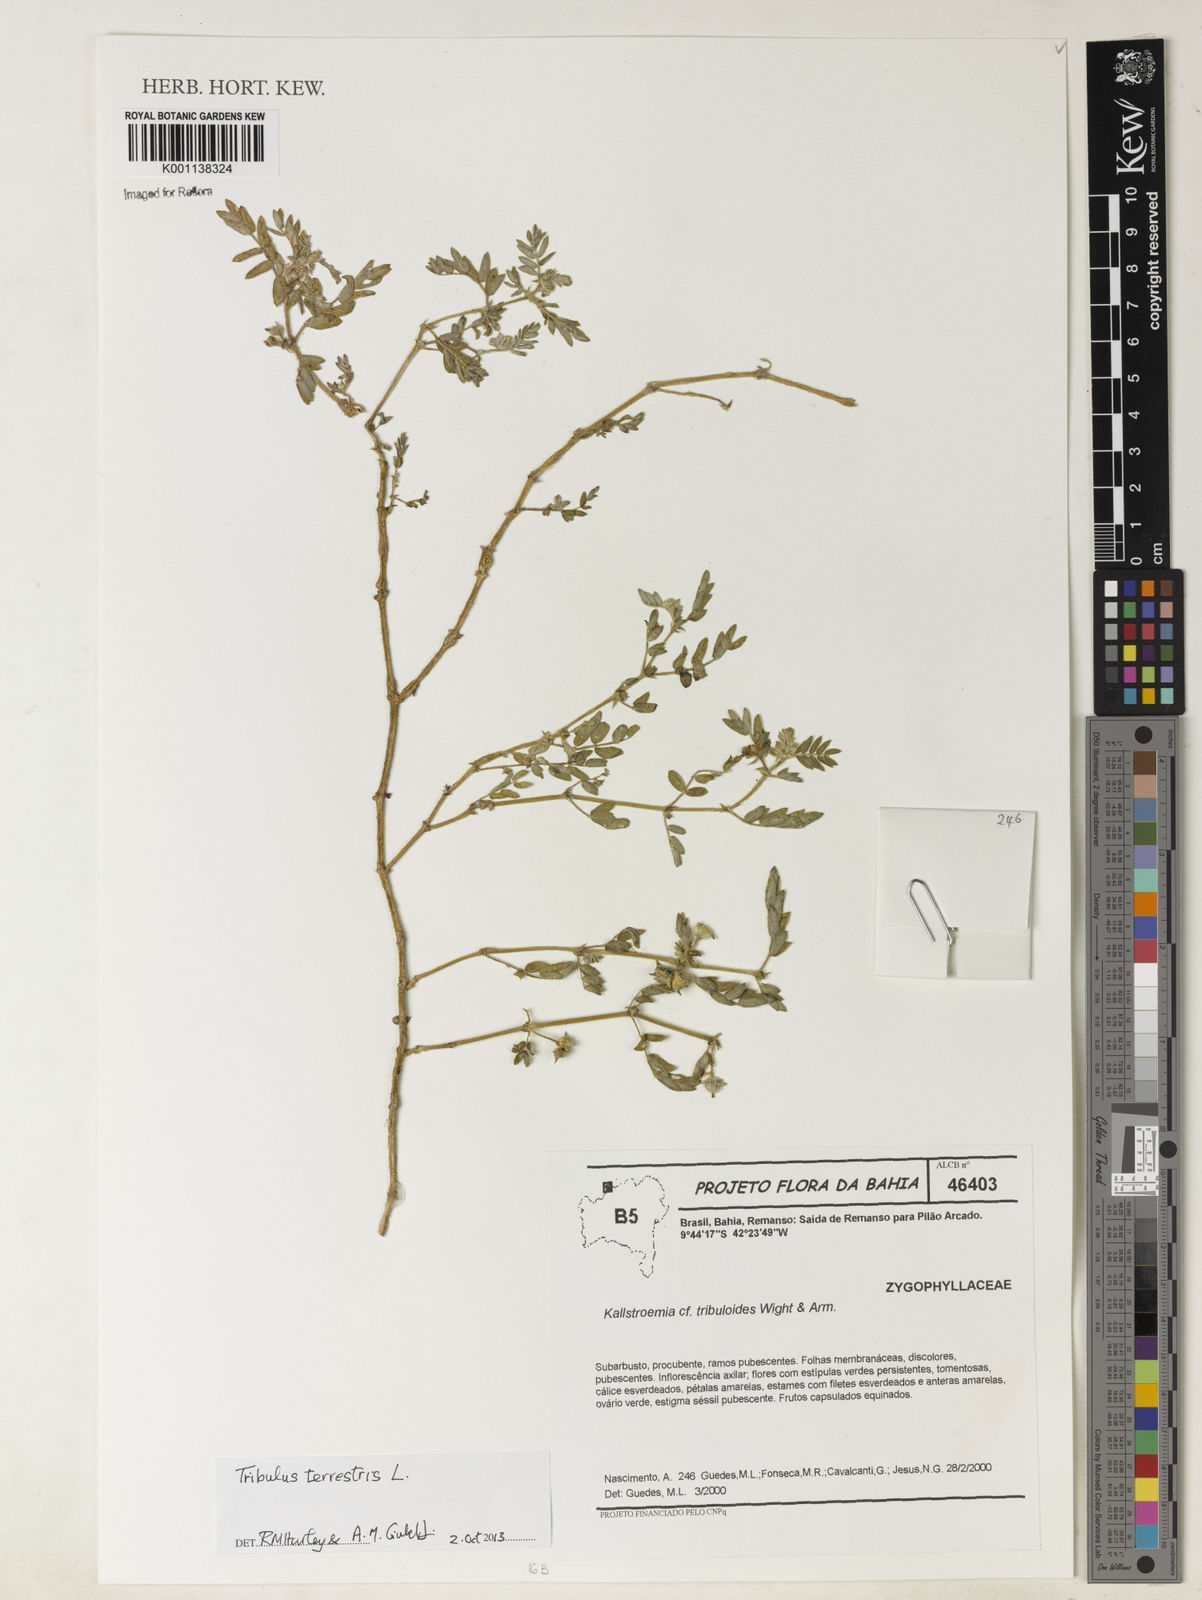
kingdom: Plantae
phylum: Tracheophyta
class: Magnoliopsida
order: Zygophyllales
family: Zygophyllaceae
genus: Tribulus
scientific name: Tribulus
